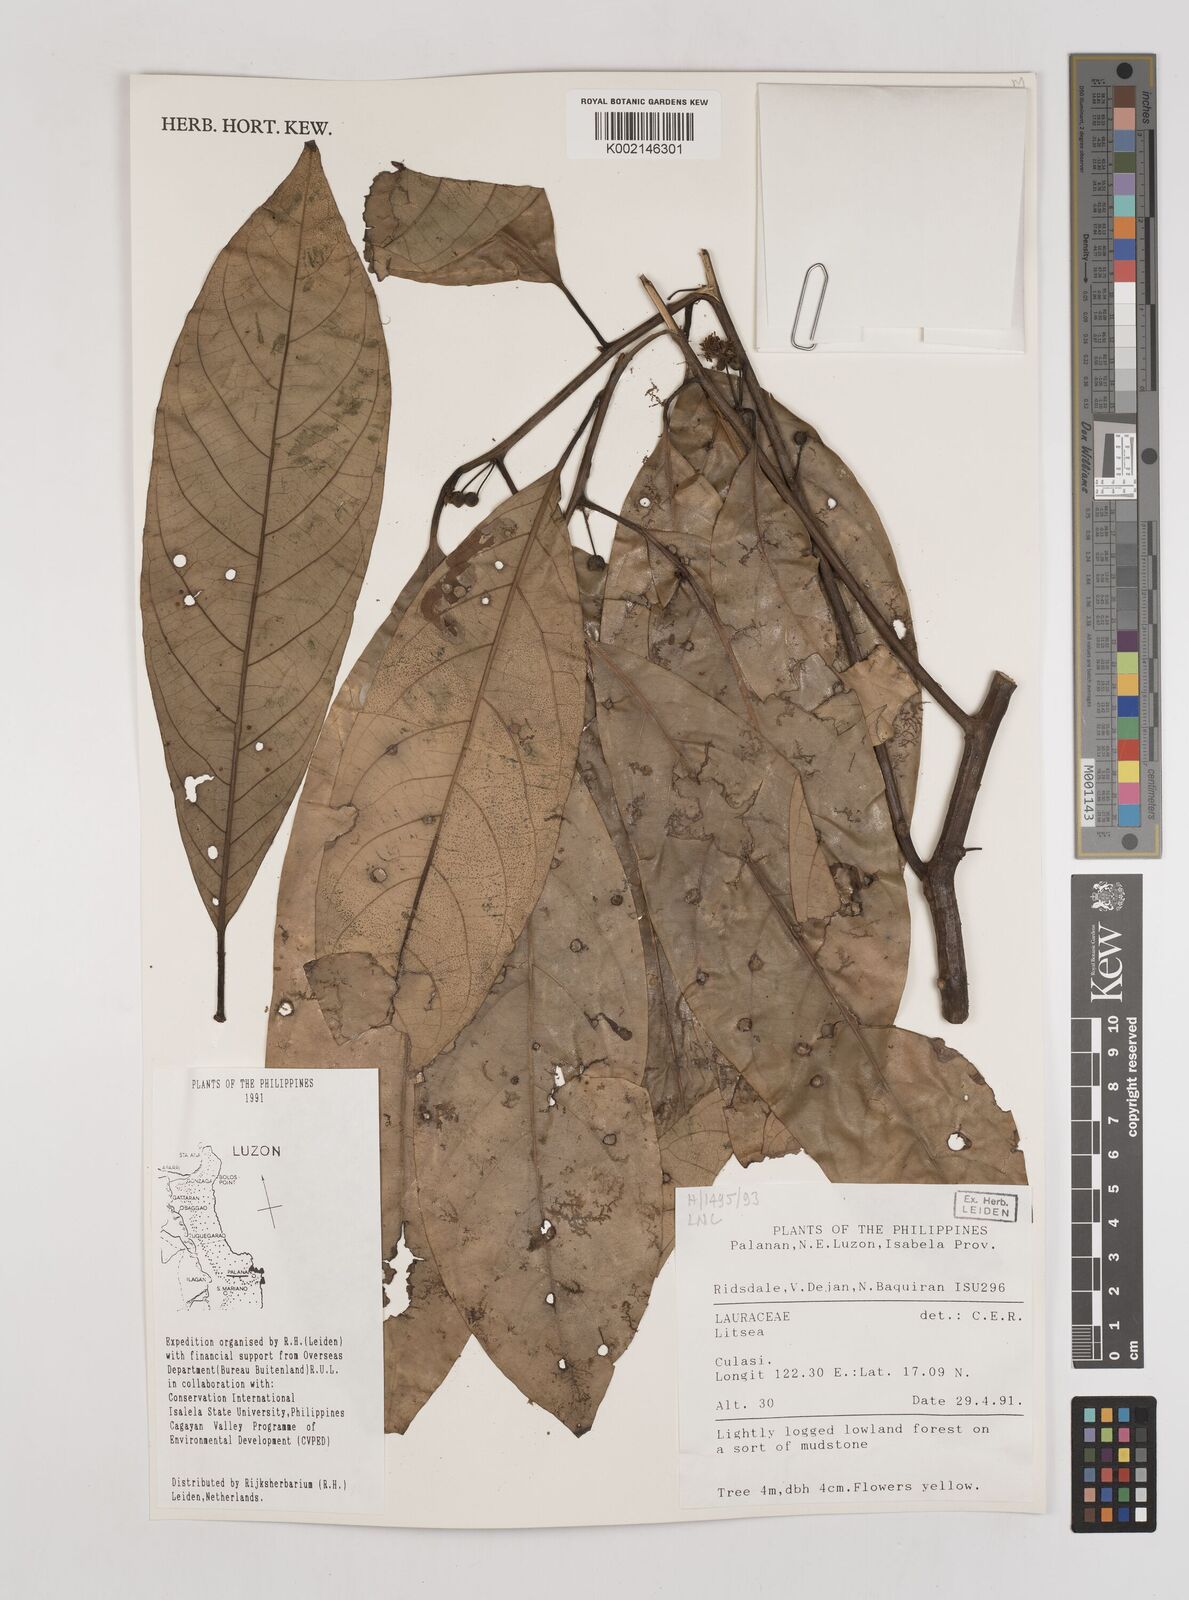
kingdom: Plantae
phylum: Tracheophyta
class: Magnoliopsida
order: Laurales
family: Lauraceae
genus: Litsea
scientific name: Litsea
